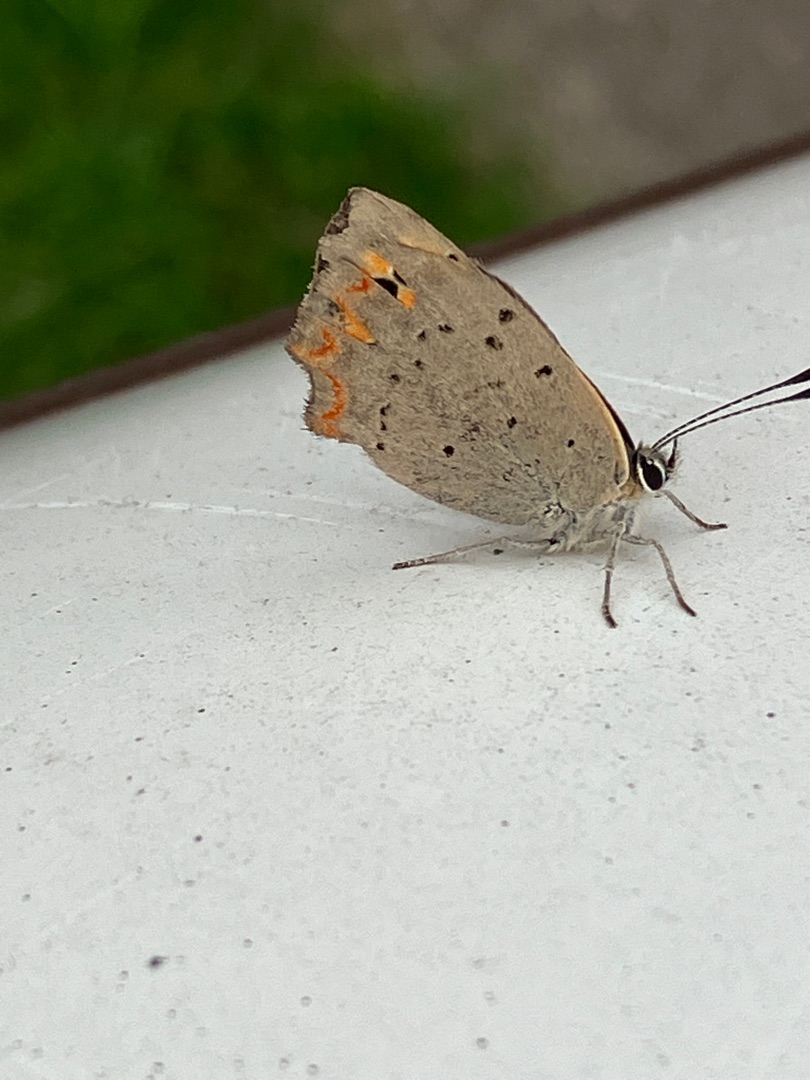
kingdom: Animalia
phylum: Arthropoda
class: Insecta
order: Lepidoptera
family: Lycaenidae
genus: Lycaena
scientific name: Lycaena phlaeas
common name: Lille ildfugl
